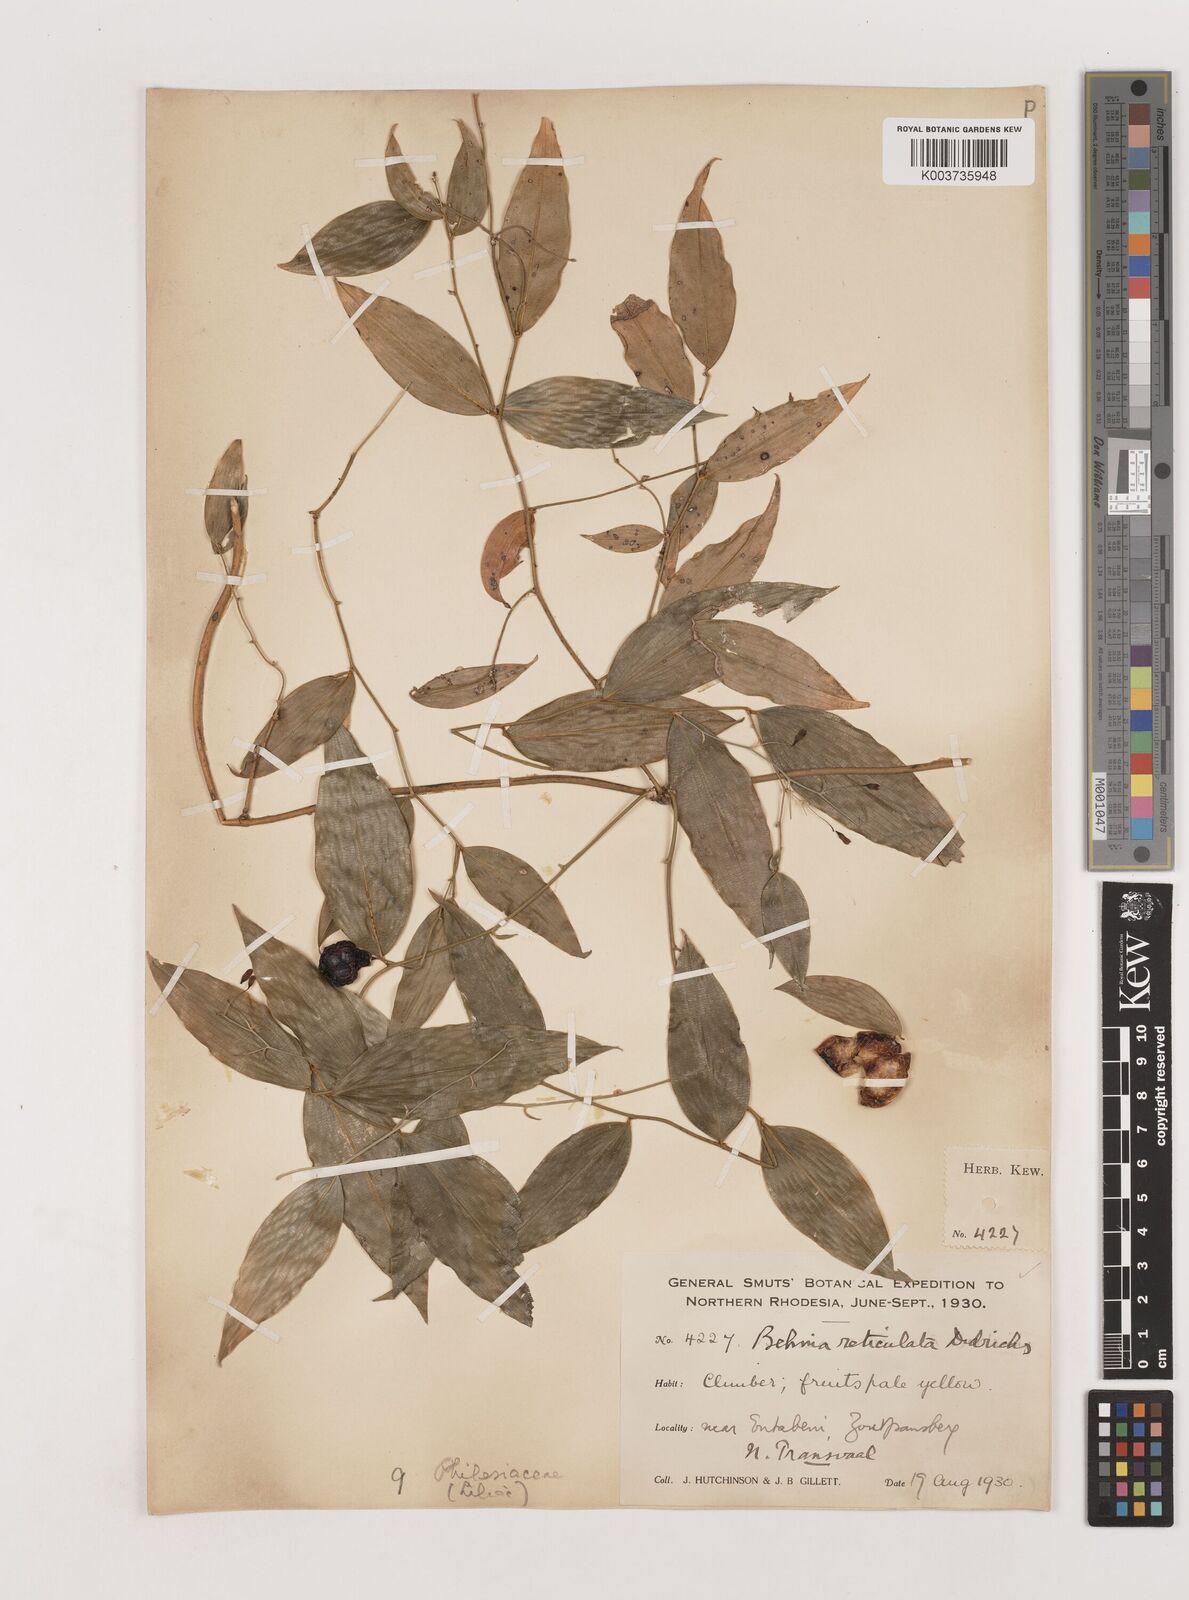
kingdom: Plantae
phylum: Tracheophyta
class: Liliopsida
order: Asparagales
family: Asparagaceae
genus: Behnia
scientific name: Behnia reticulata
